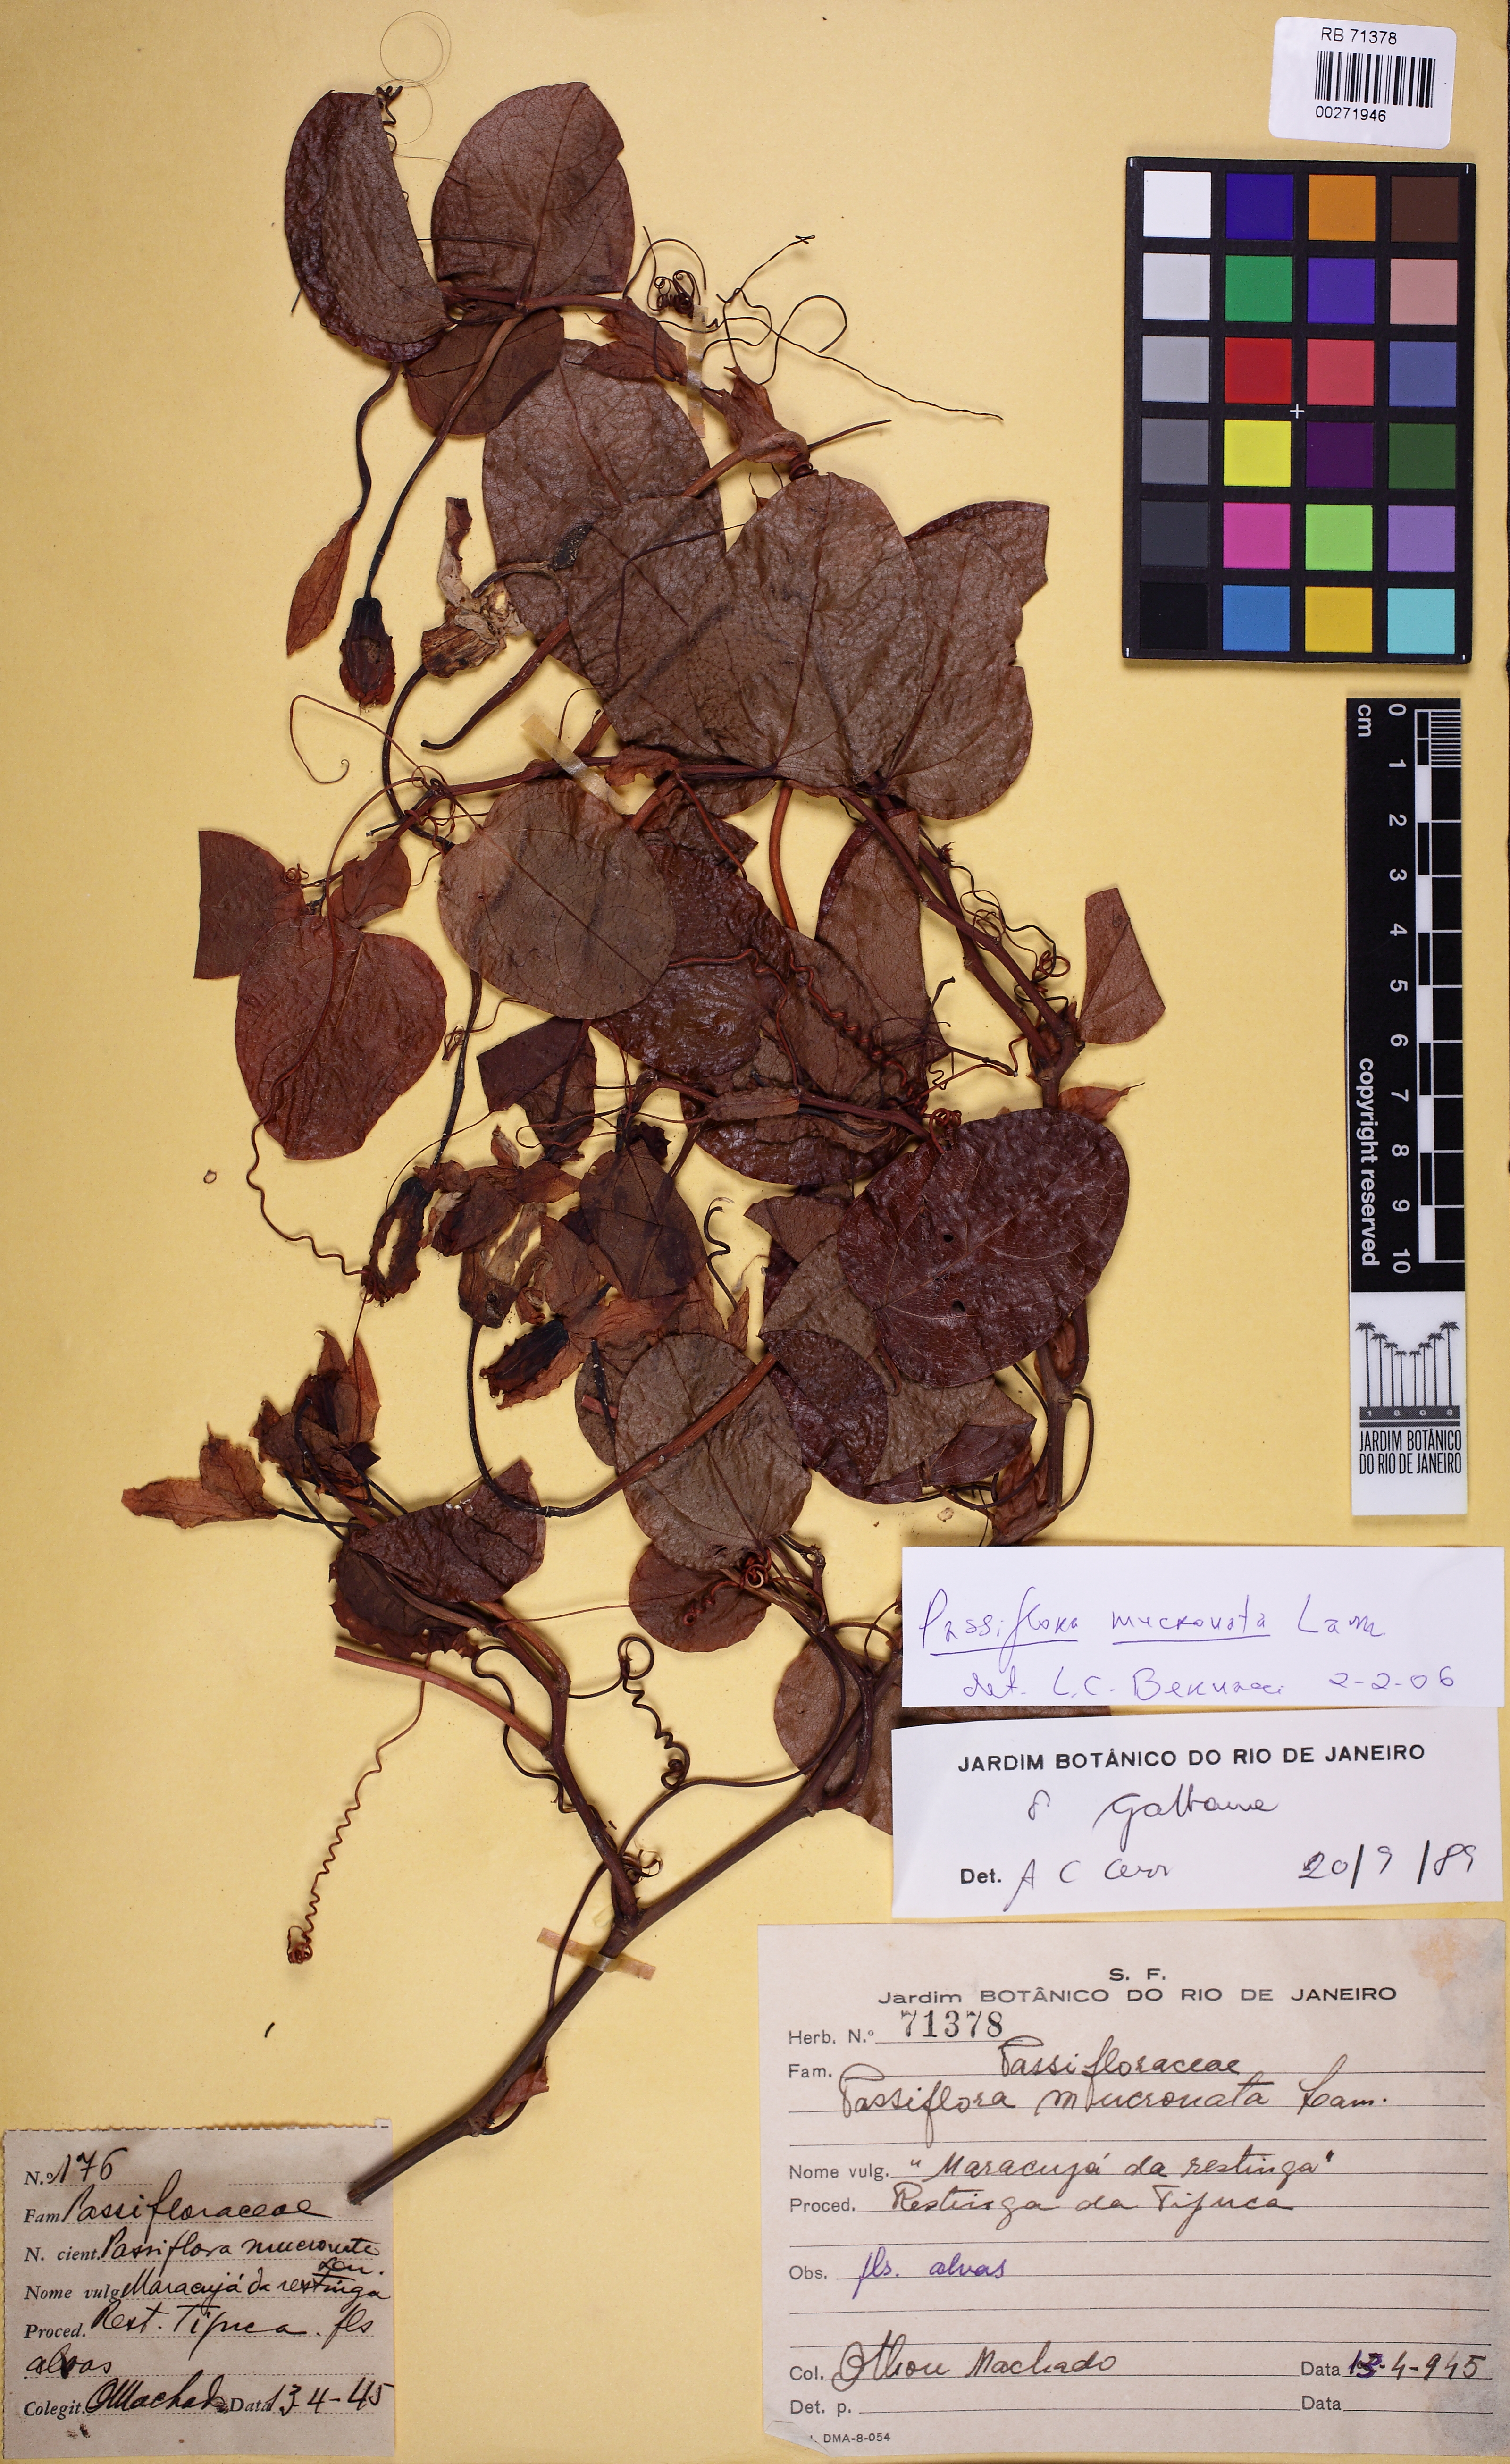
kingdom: Plantae
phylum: Tracheophyta
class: Magnoliopsida
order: Malpighiales
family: Passifloraceae
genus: Passiflora
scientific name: Passiflora silvestris
